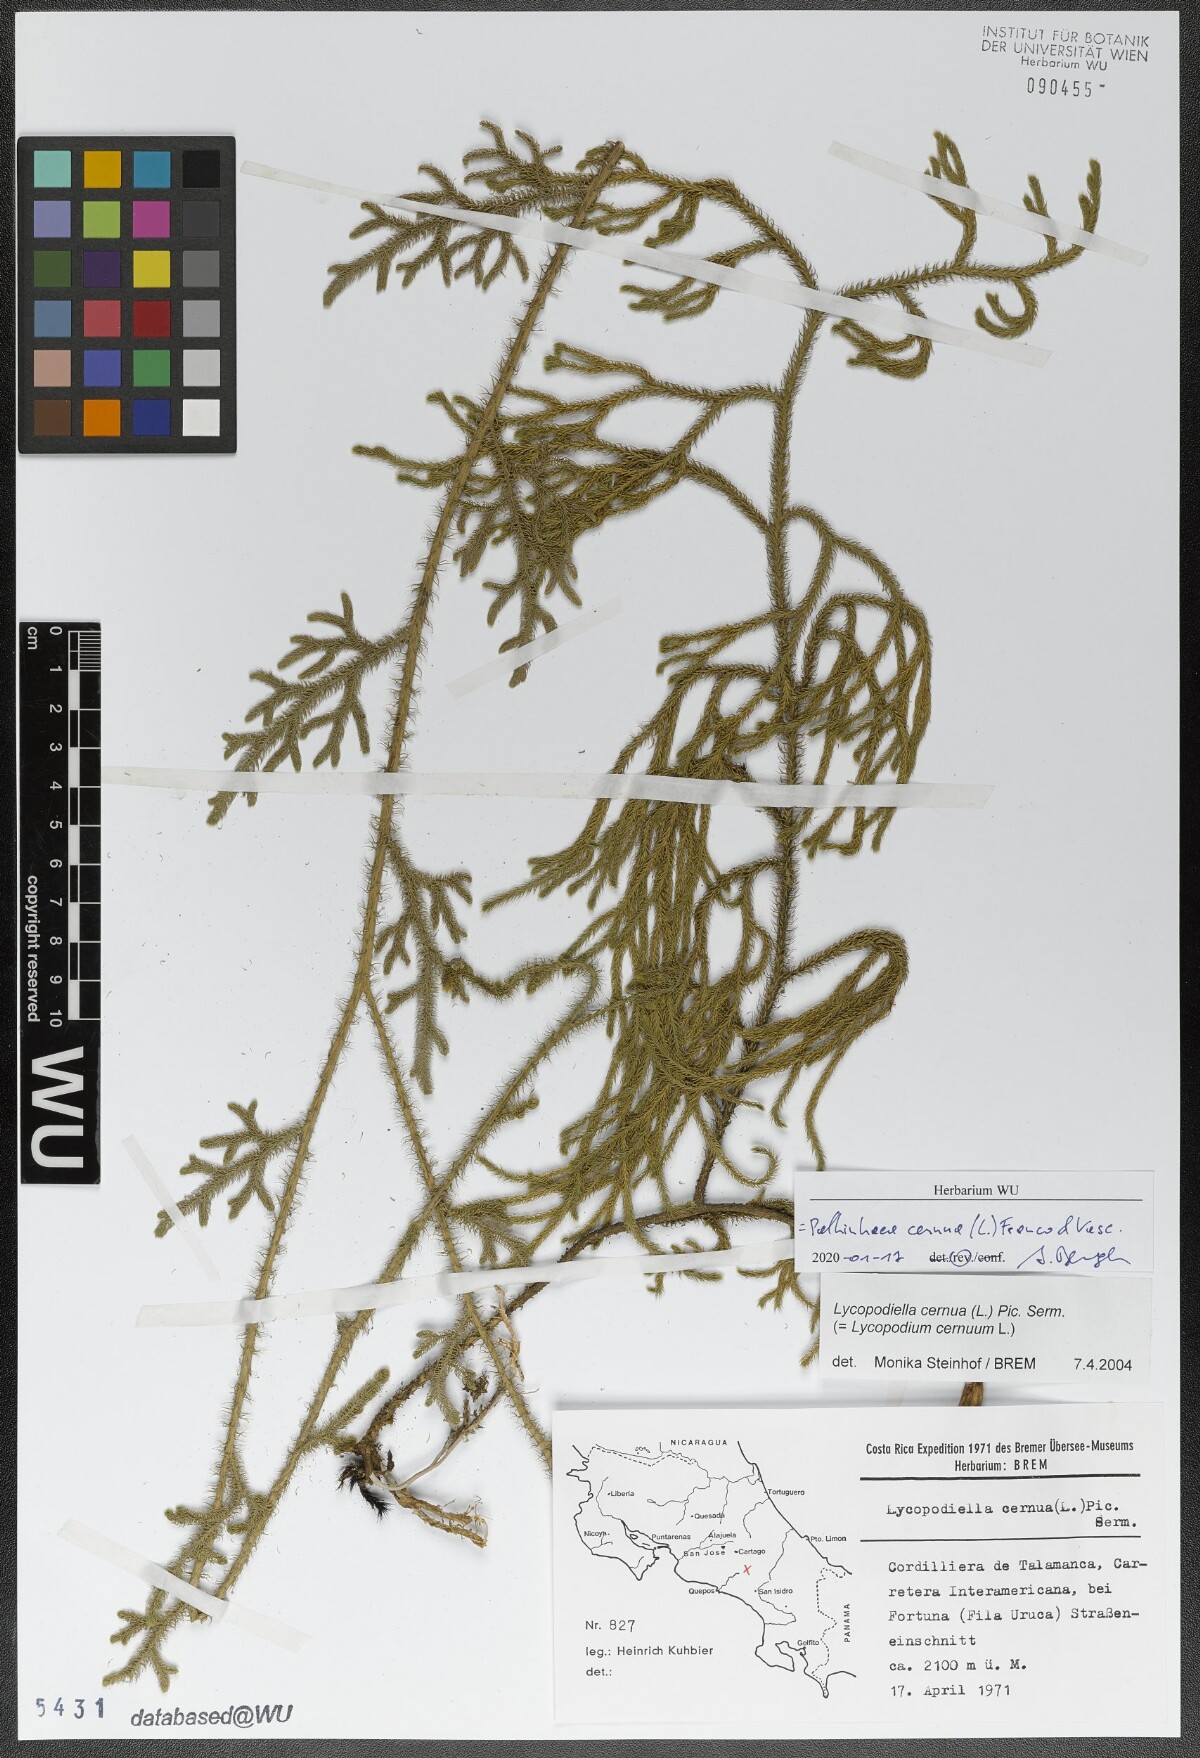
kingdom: Plantae
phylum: Tracheophyta
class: Lycopodiopsida
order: Lycopodiales
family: Lycopodiaceae
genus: Palhinhaea
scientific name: Palhinhaea cernua
